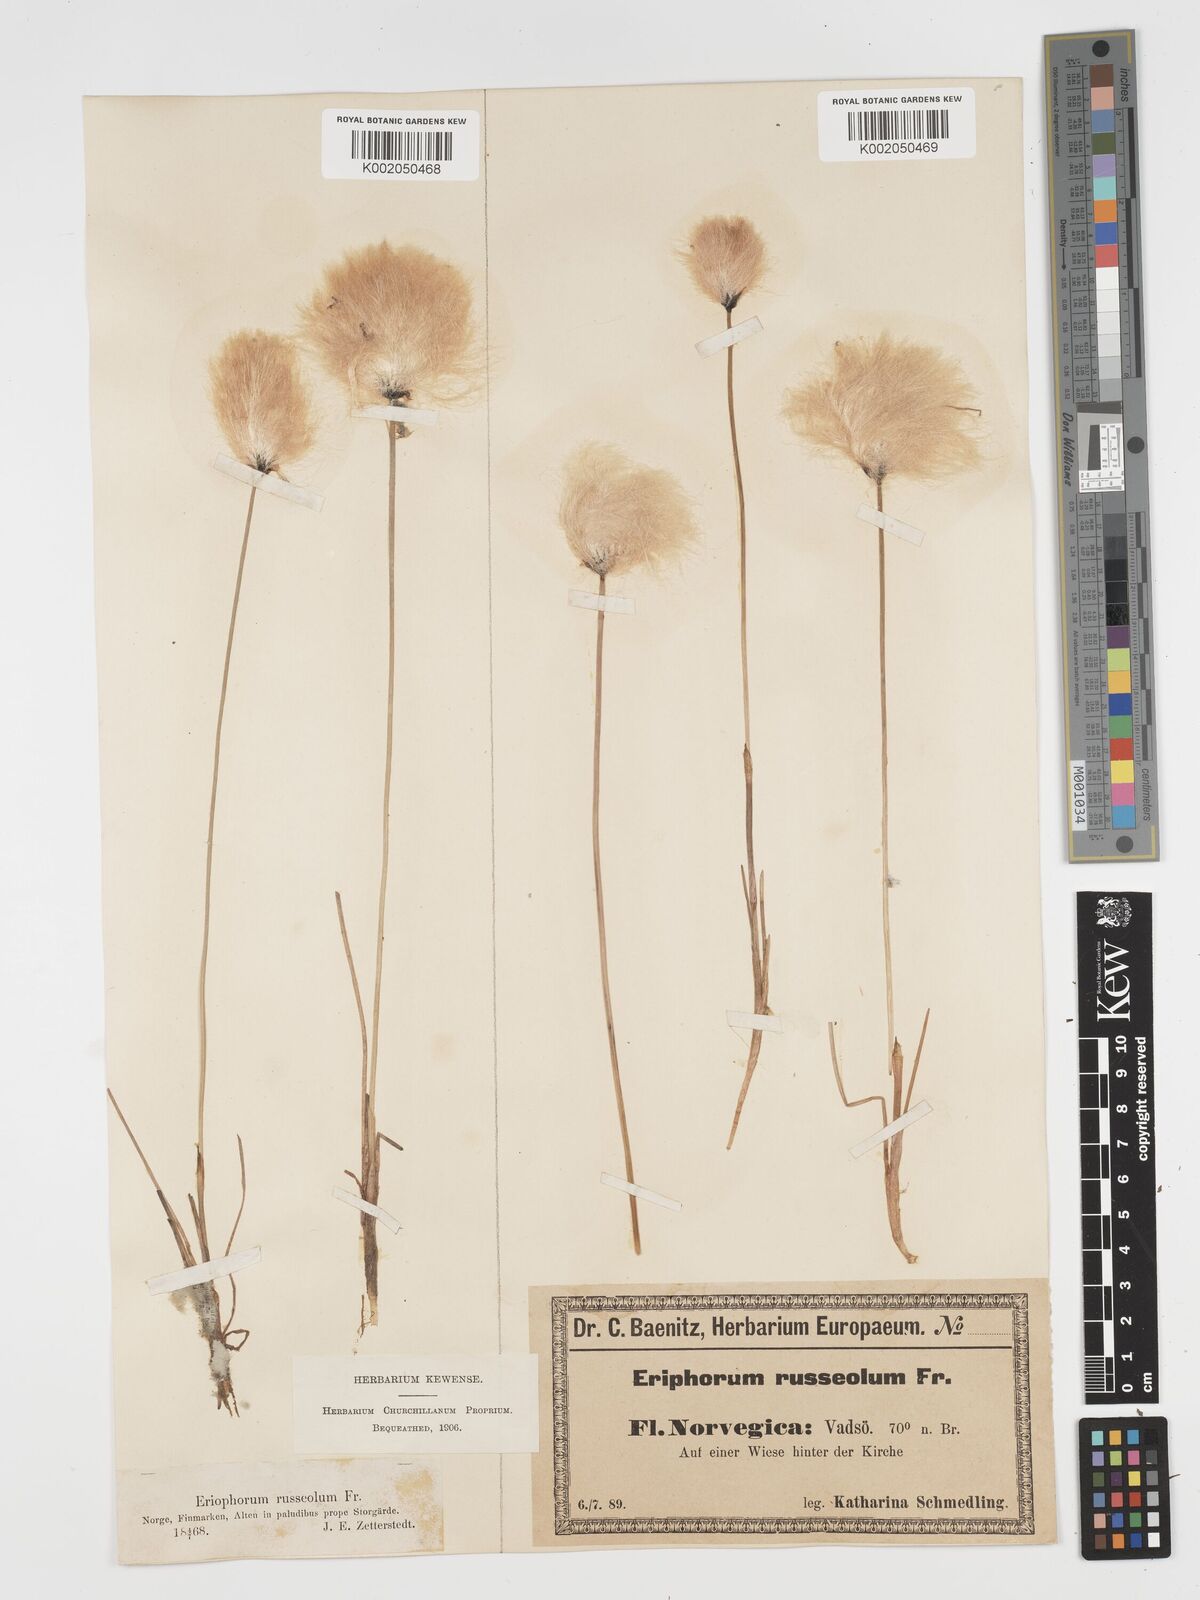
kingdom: Plantae
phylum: Tracheophyta
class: Liliopsida
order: Poales
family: Cyperaceae
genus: Eriophorum
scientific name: Eriophorum scheuchzeri
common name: Scheuchzer's cottongrass
